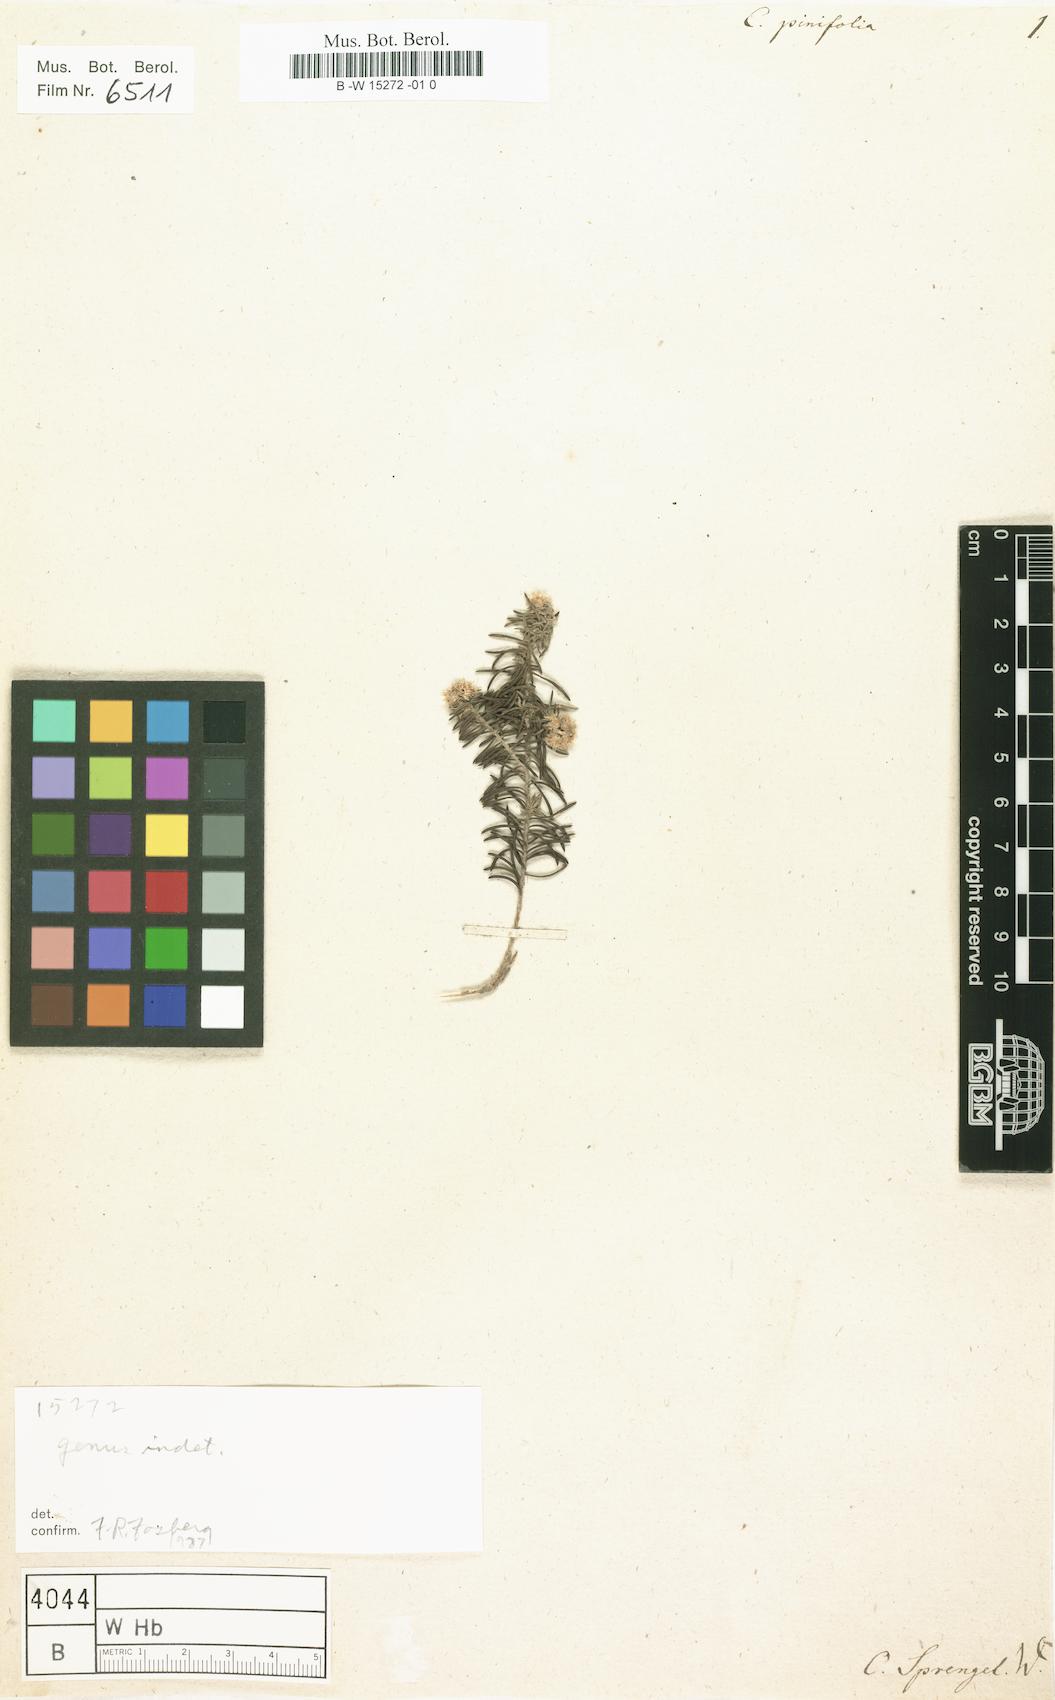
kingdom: Plantae
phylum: Tracheophyta
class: Magnoliopsida
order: Asterales
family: Asteraceae
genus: Ozothamnus
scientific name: Ozothamnus pinifolius
